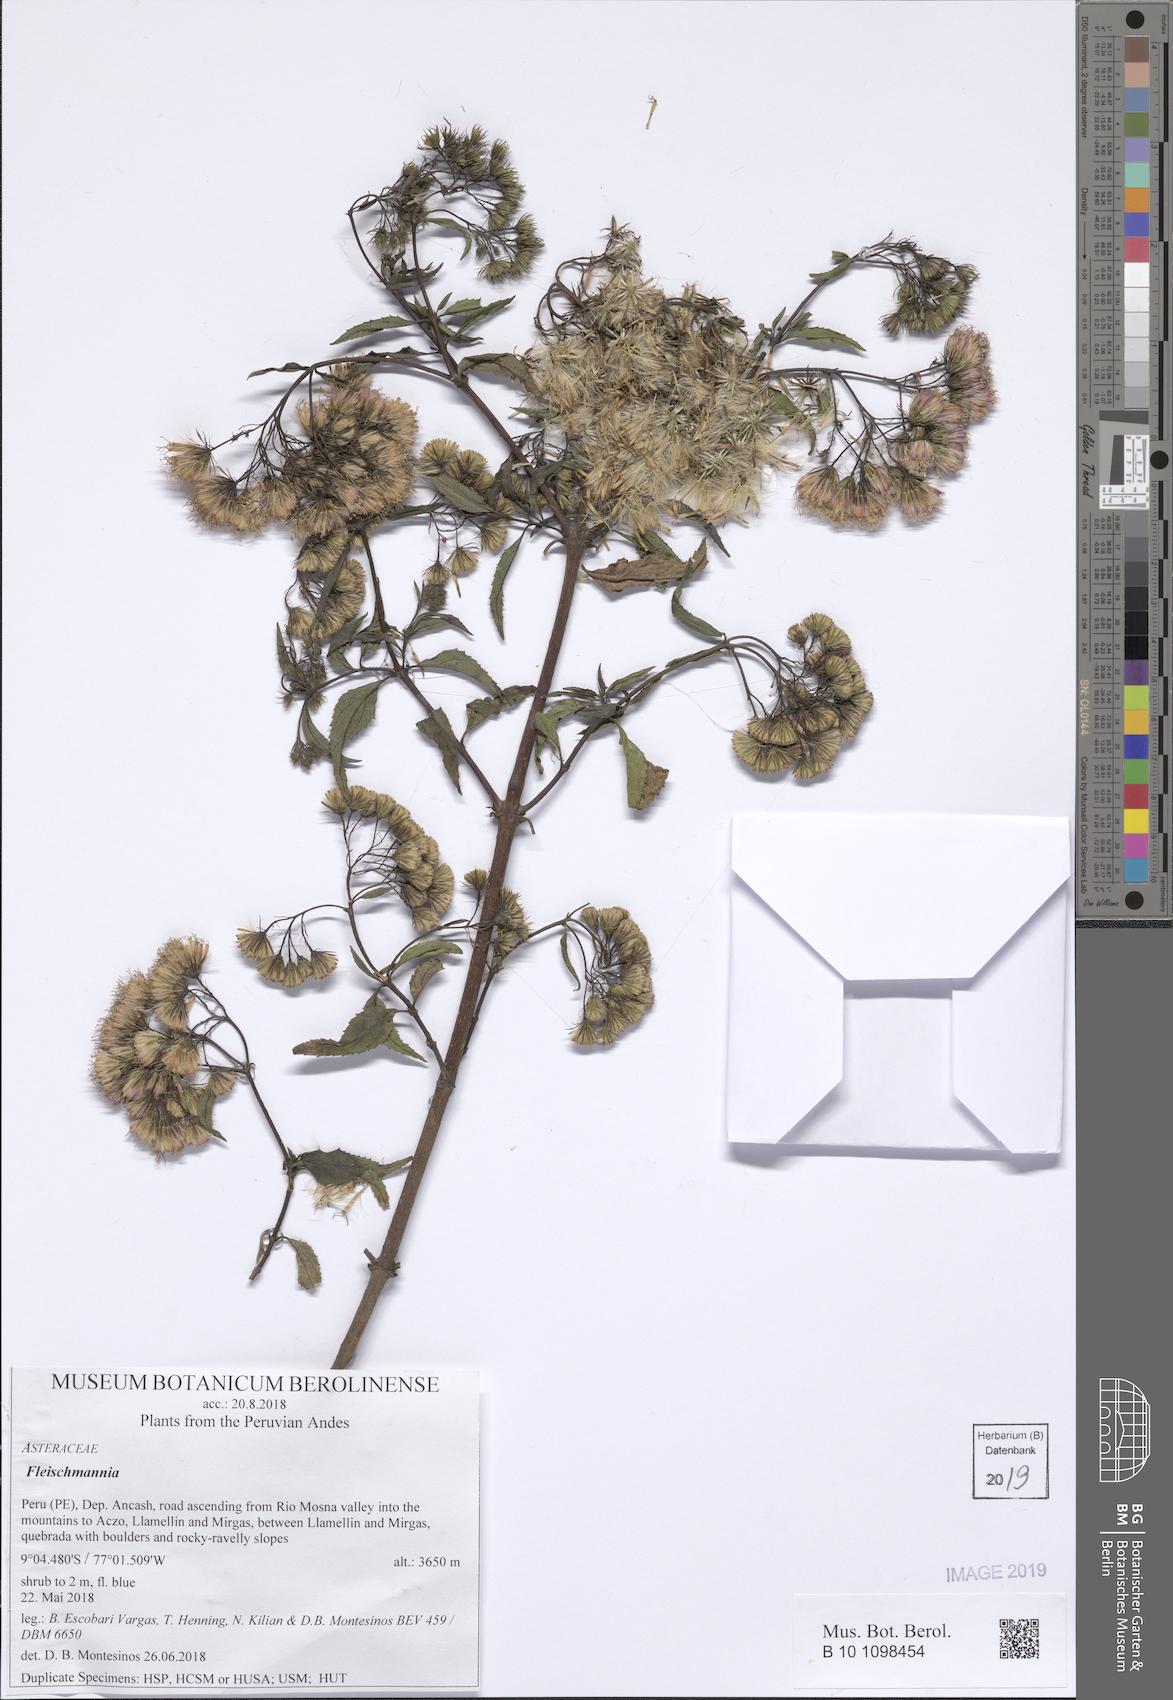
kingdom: Plantae
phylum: Tracheophyta
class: Magnoliopsida
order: Asterales
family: Asteraceae
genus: Fleischmannia
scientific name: Fleischmannia
